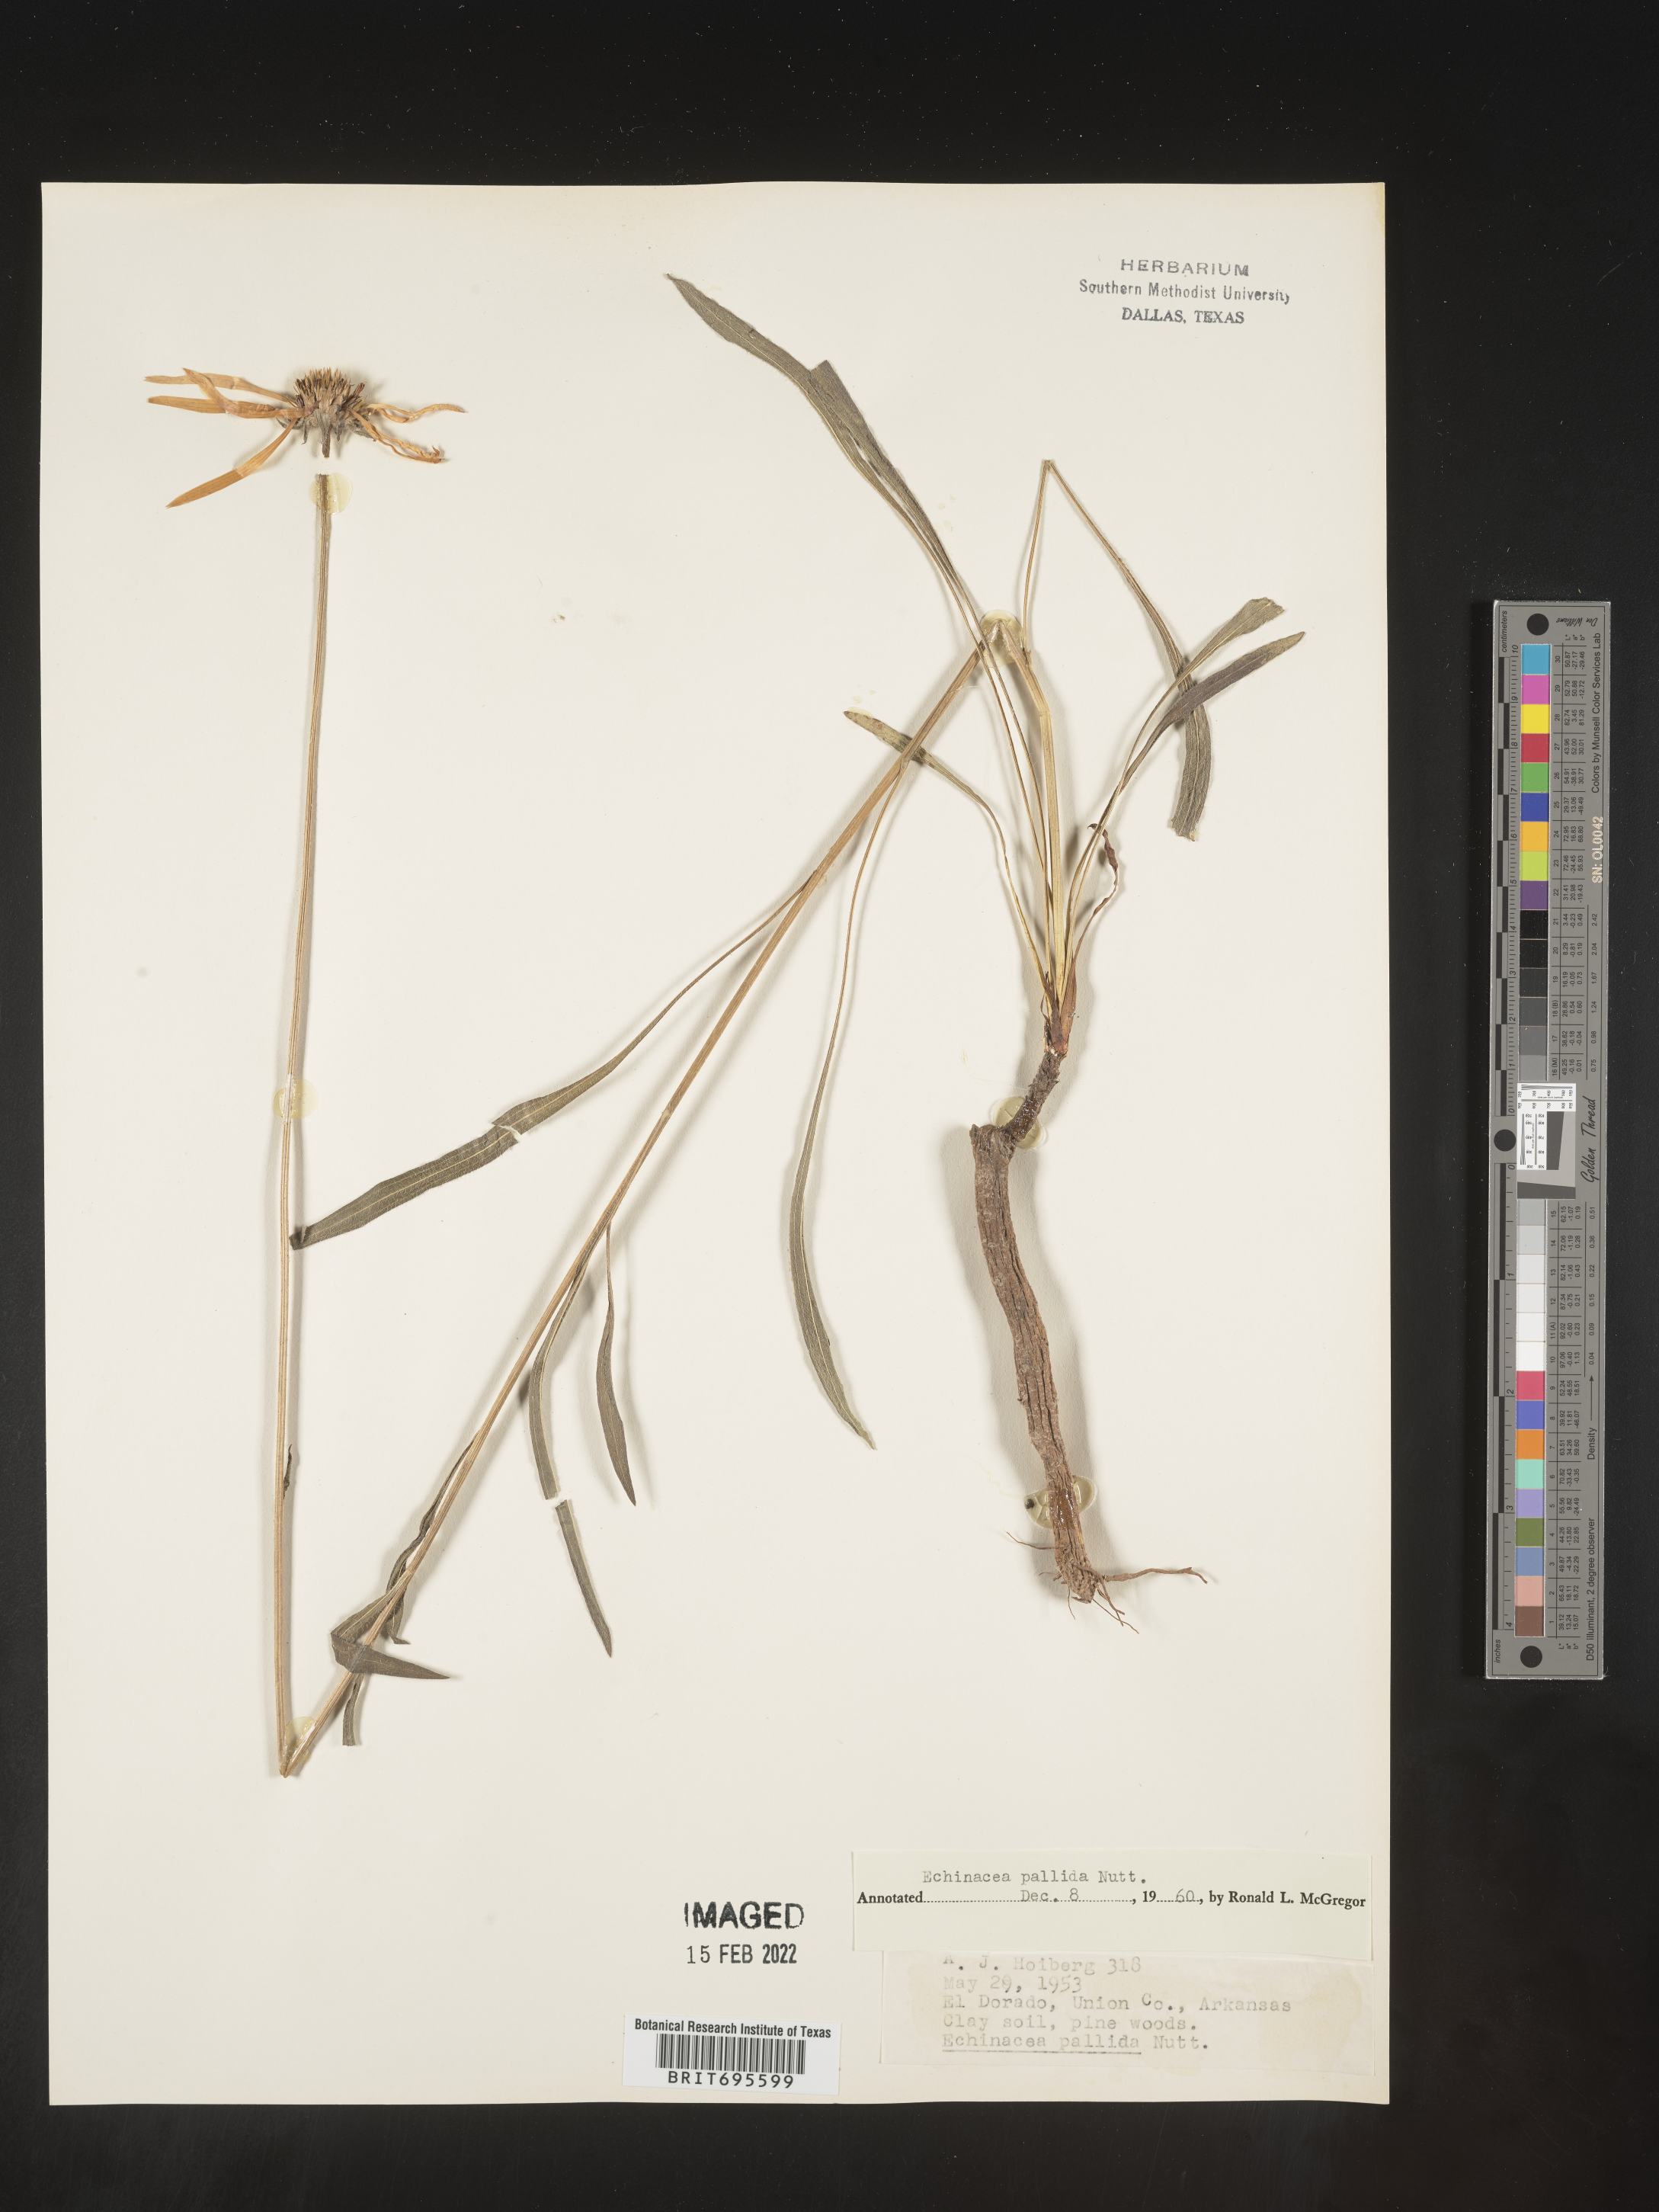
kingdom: Plantae
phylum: Tracheophyta
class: Magnoliopsida
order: Asterales
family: Asteraceae
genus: Echinacea
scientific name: Echinacea pallida
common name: Pale echinacea
